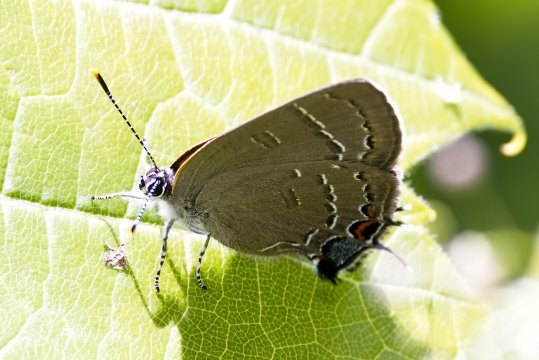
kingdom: Animalia
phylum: Arthropoda
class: Insecta
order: Lepidoptera
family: Lycaenidae
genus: Satyrium
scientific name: Satyrium calanus
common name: Banded Hairstreak
